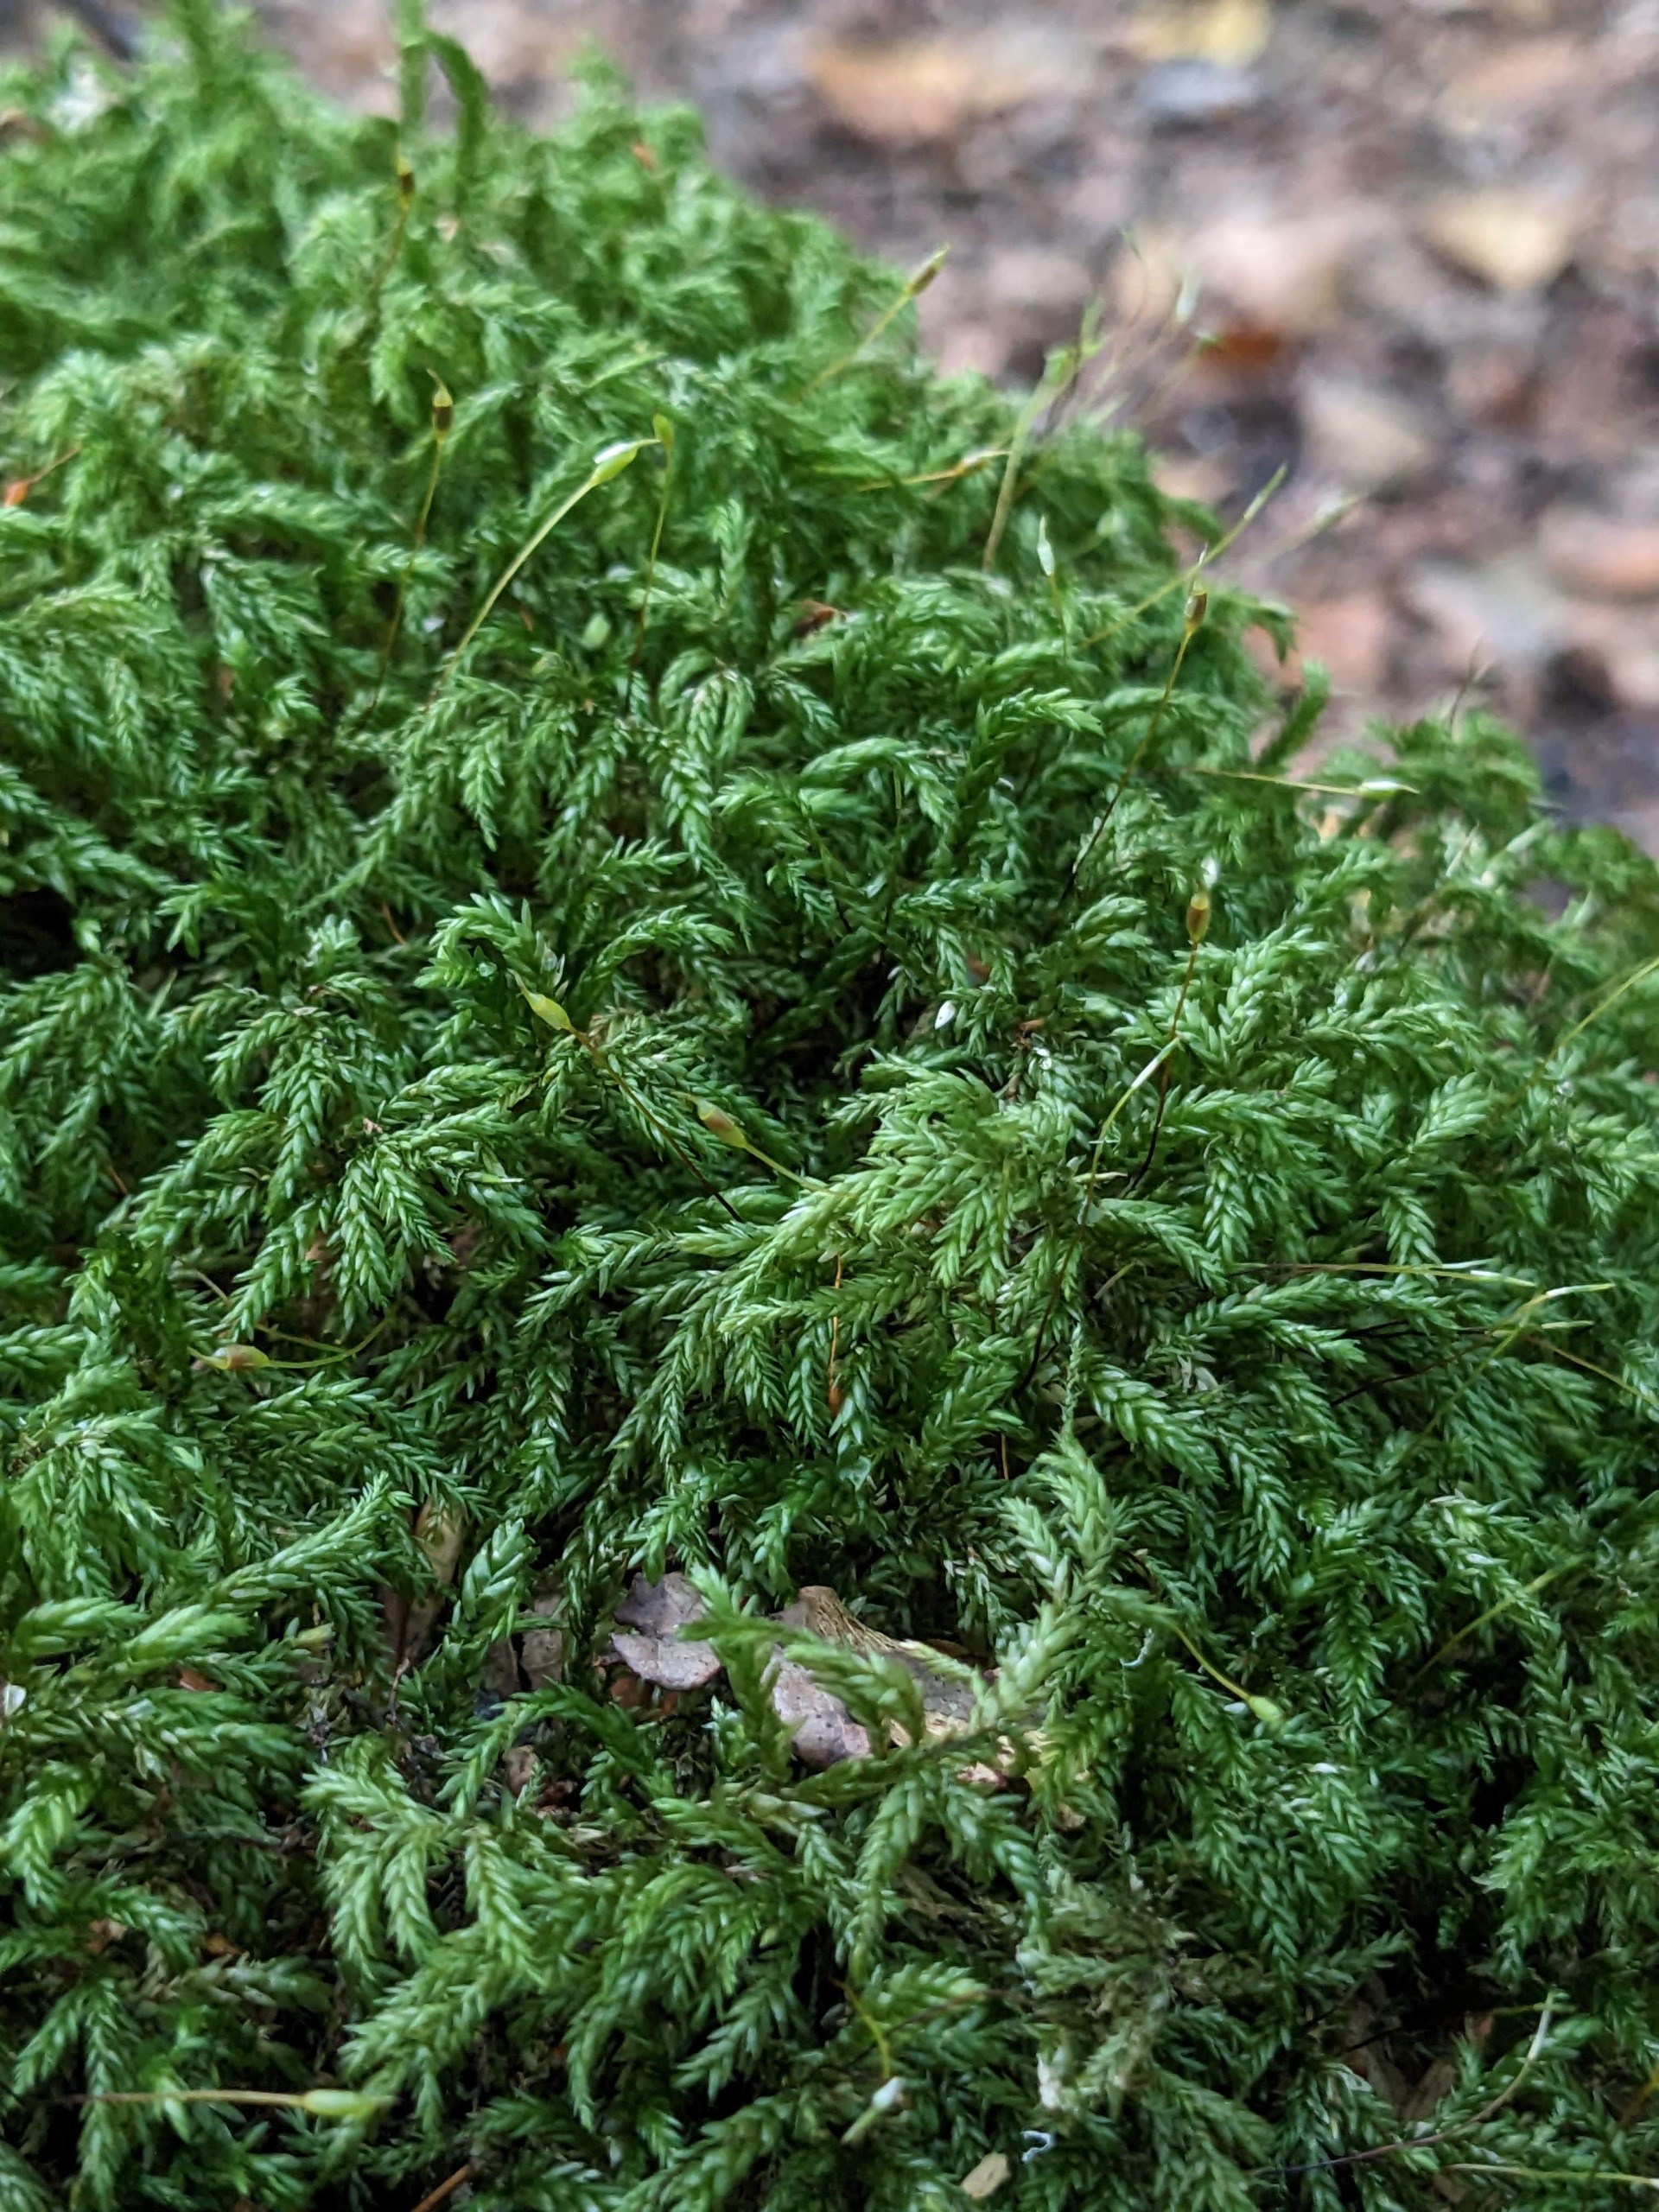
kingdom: Plantae
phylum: Bryophyta
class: Bryopsida
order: Hypnales
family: Lembophyllaceae
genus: Isothecium
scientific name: Isothecium alopecuroides
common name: Stor stammemos
